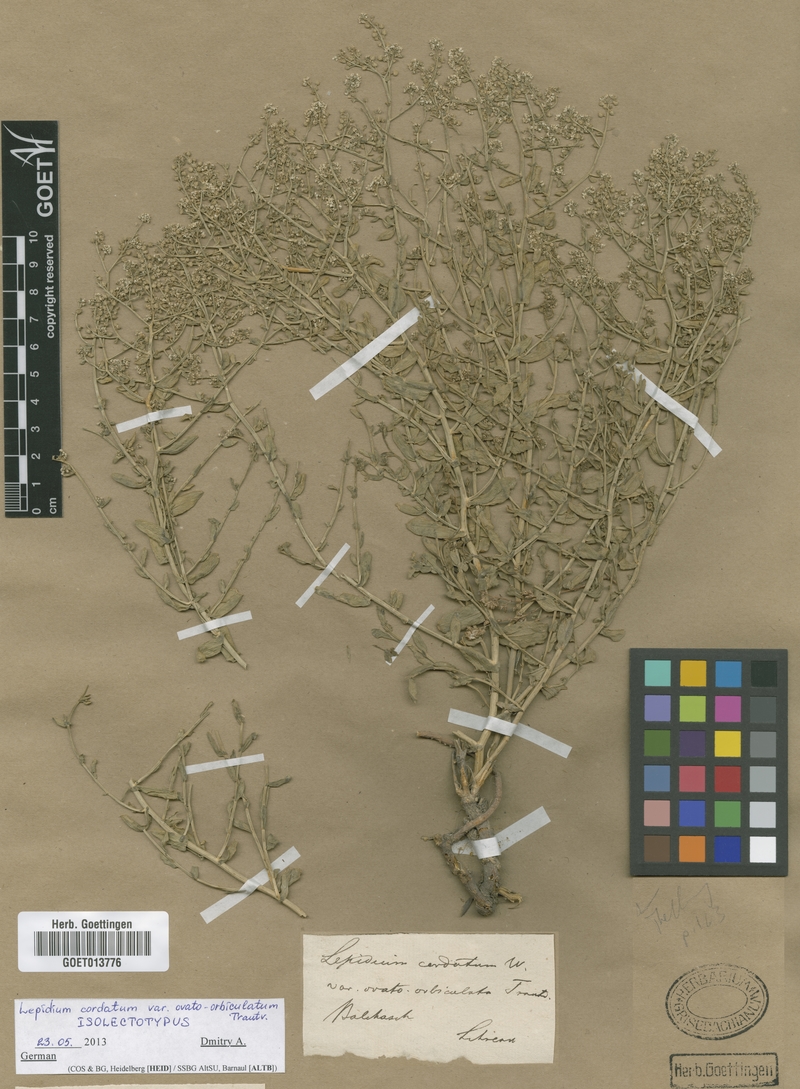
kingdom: Plantae
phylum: Tracheophyta
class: Magnoliopsida
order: Brassicales
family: Brassicaceae
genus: Lepidium
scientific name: Lepidium cordatum
